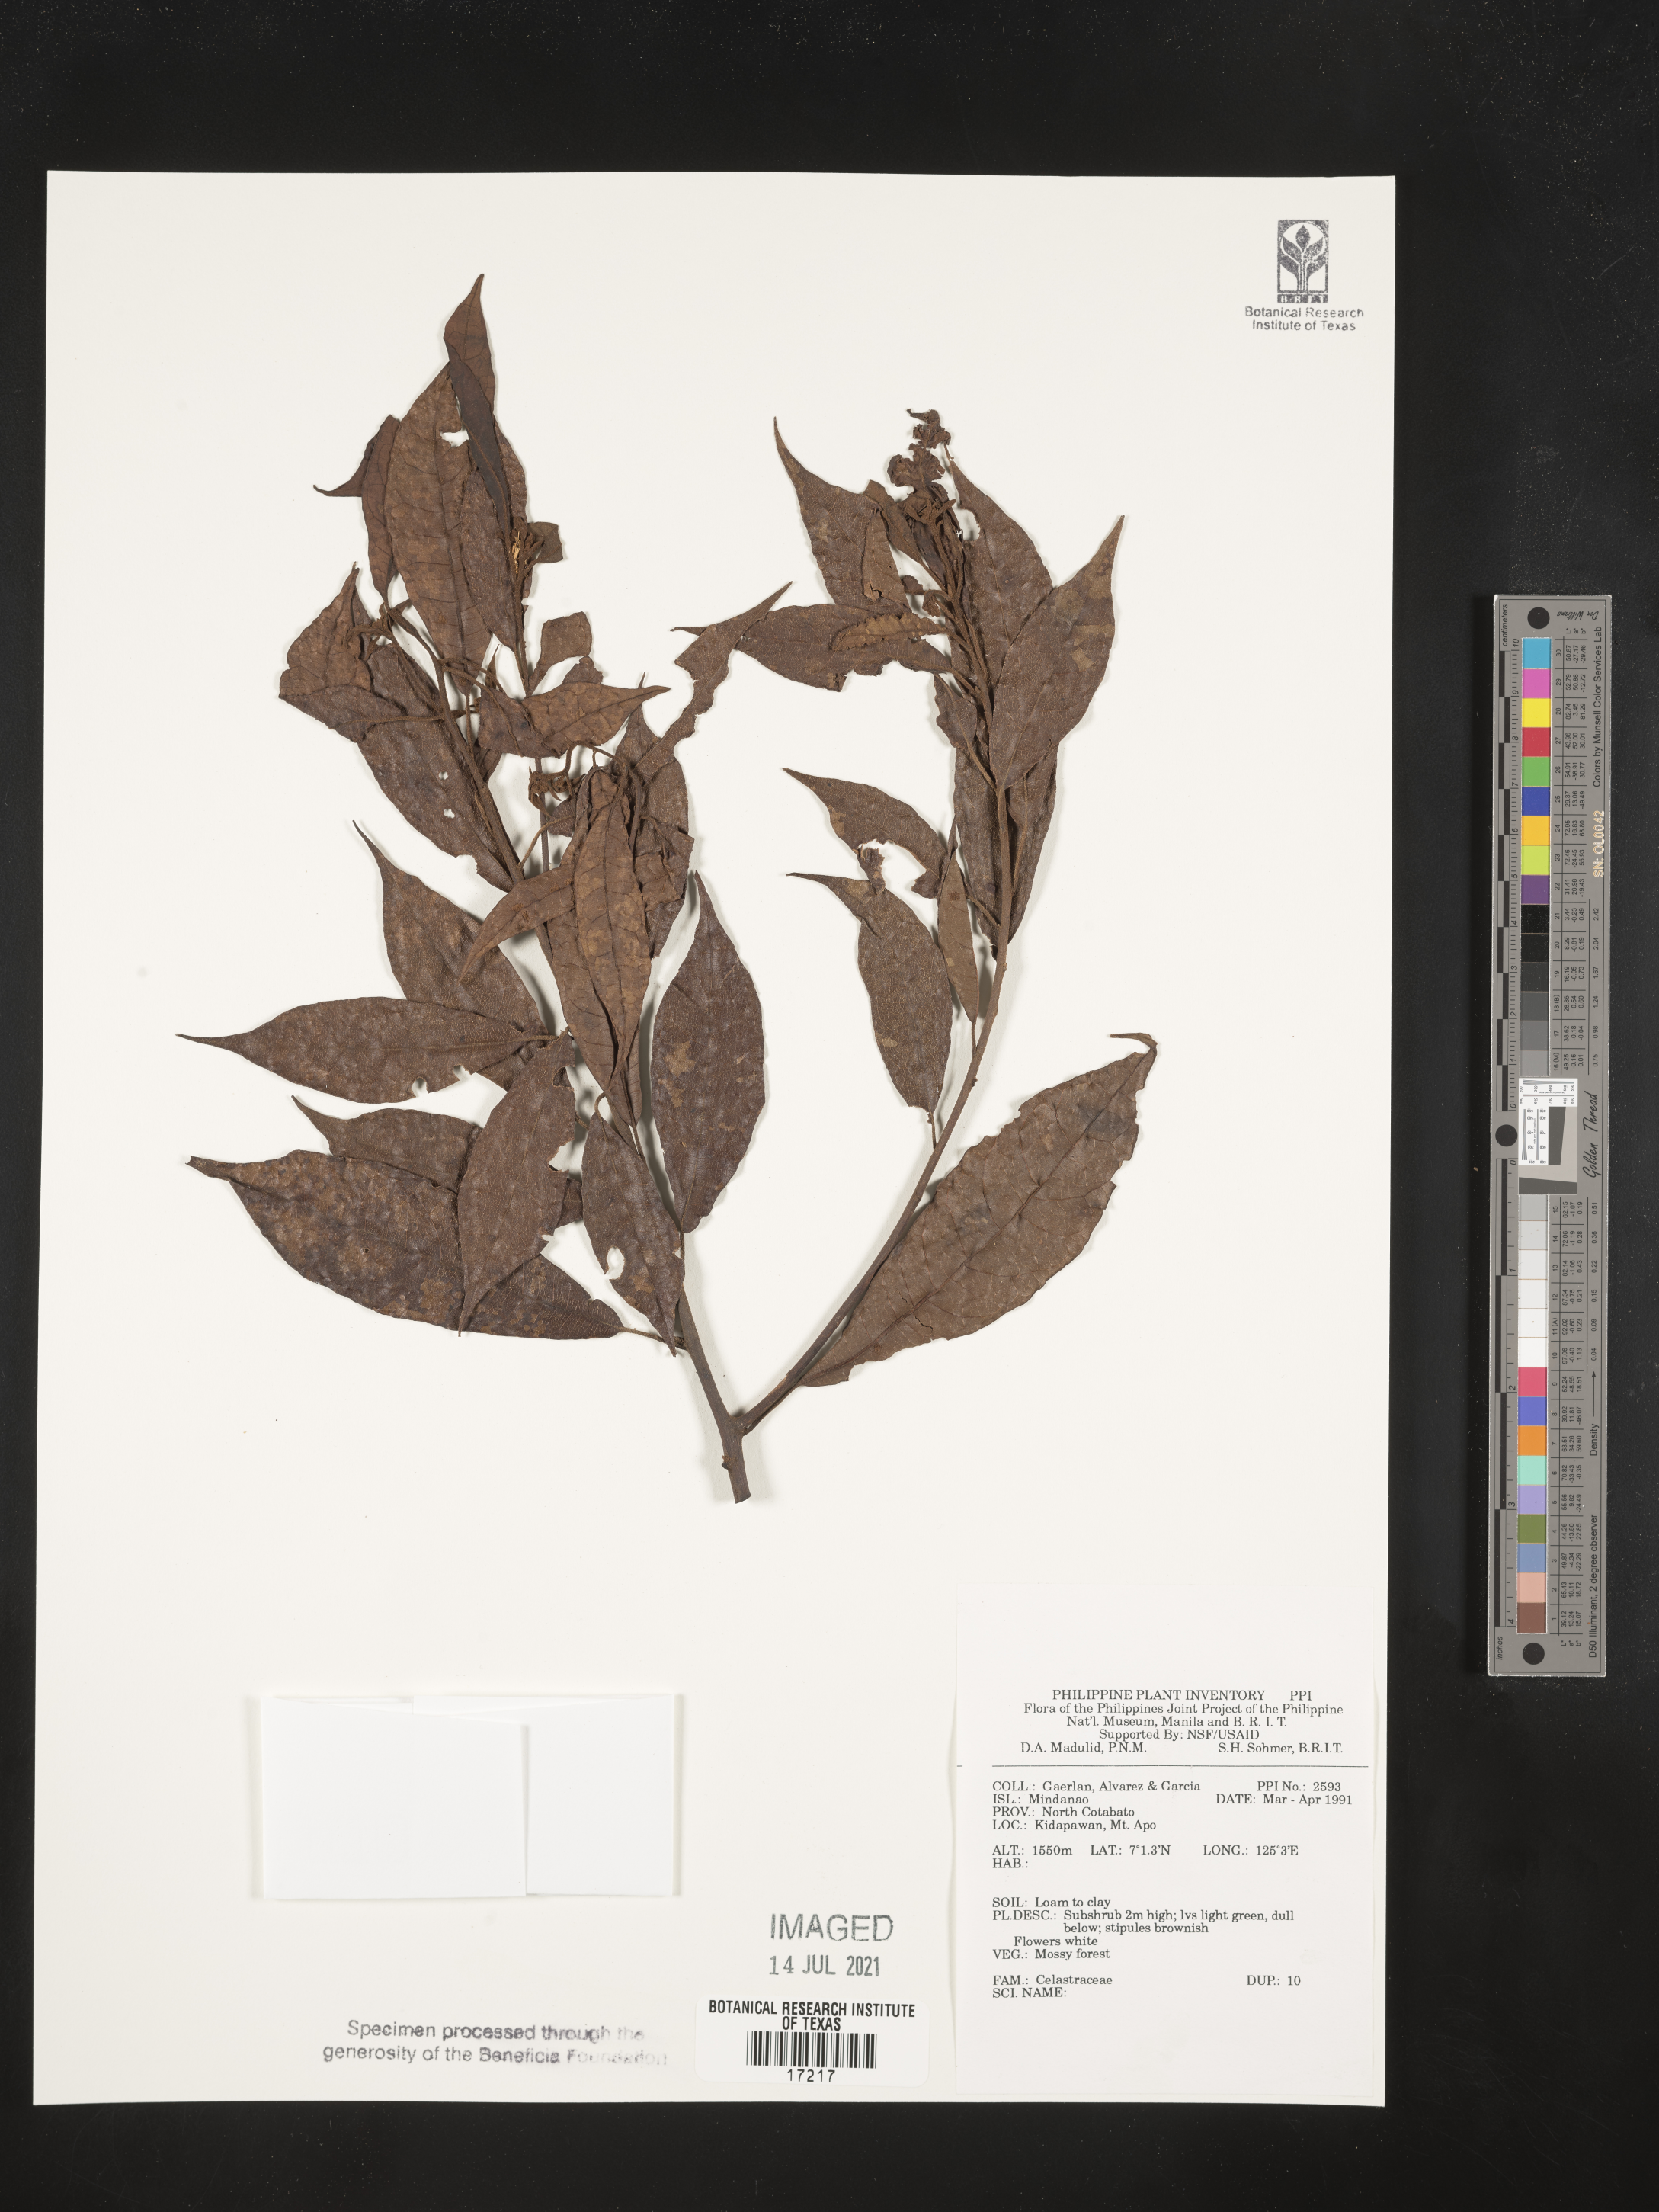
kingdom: Plantae
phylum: Tracheophyta
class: Magnoliopsida
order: Celastrales
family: Celastraceae
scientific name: Celastraceae
